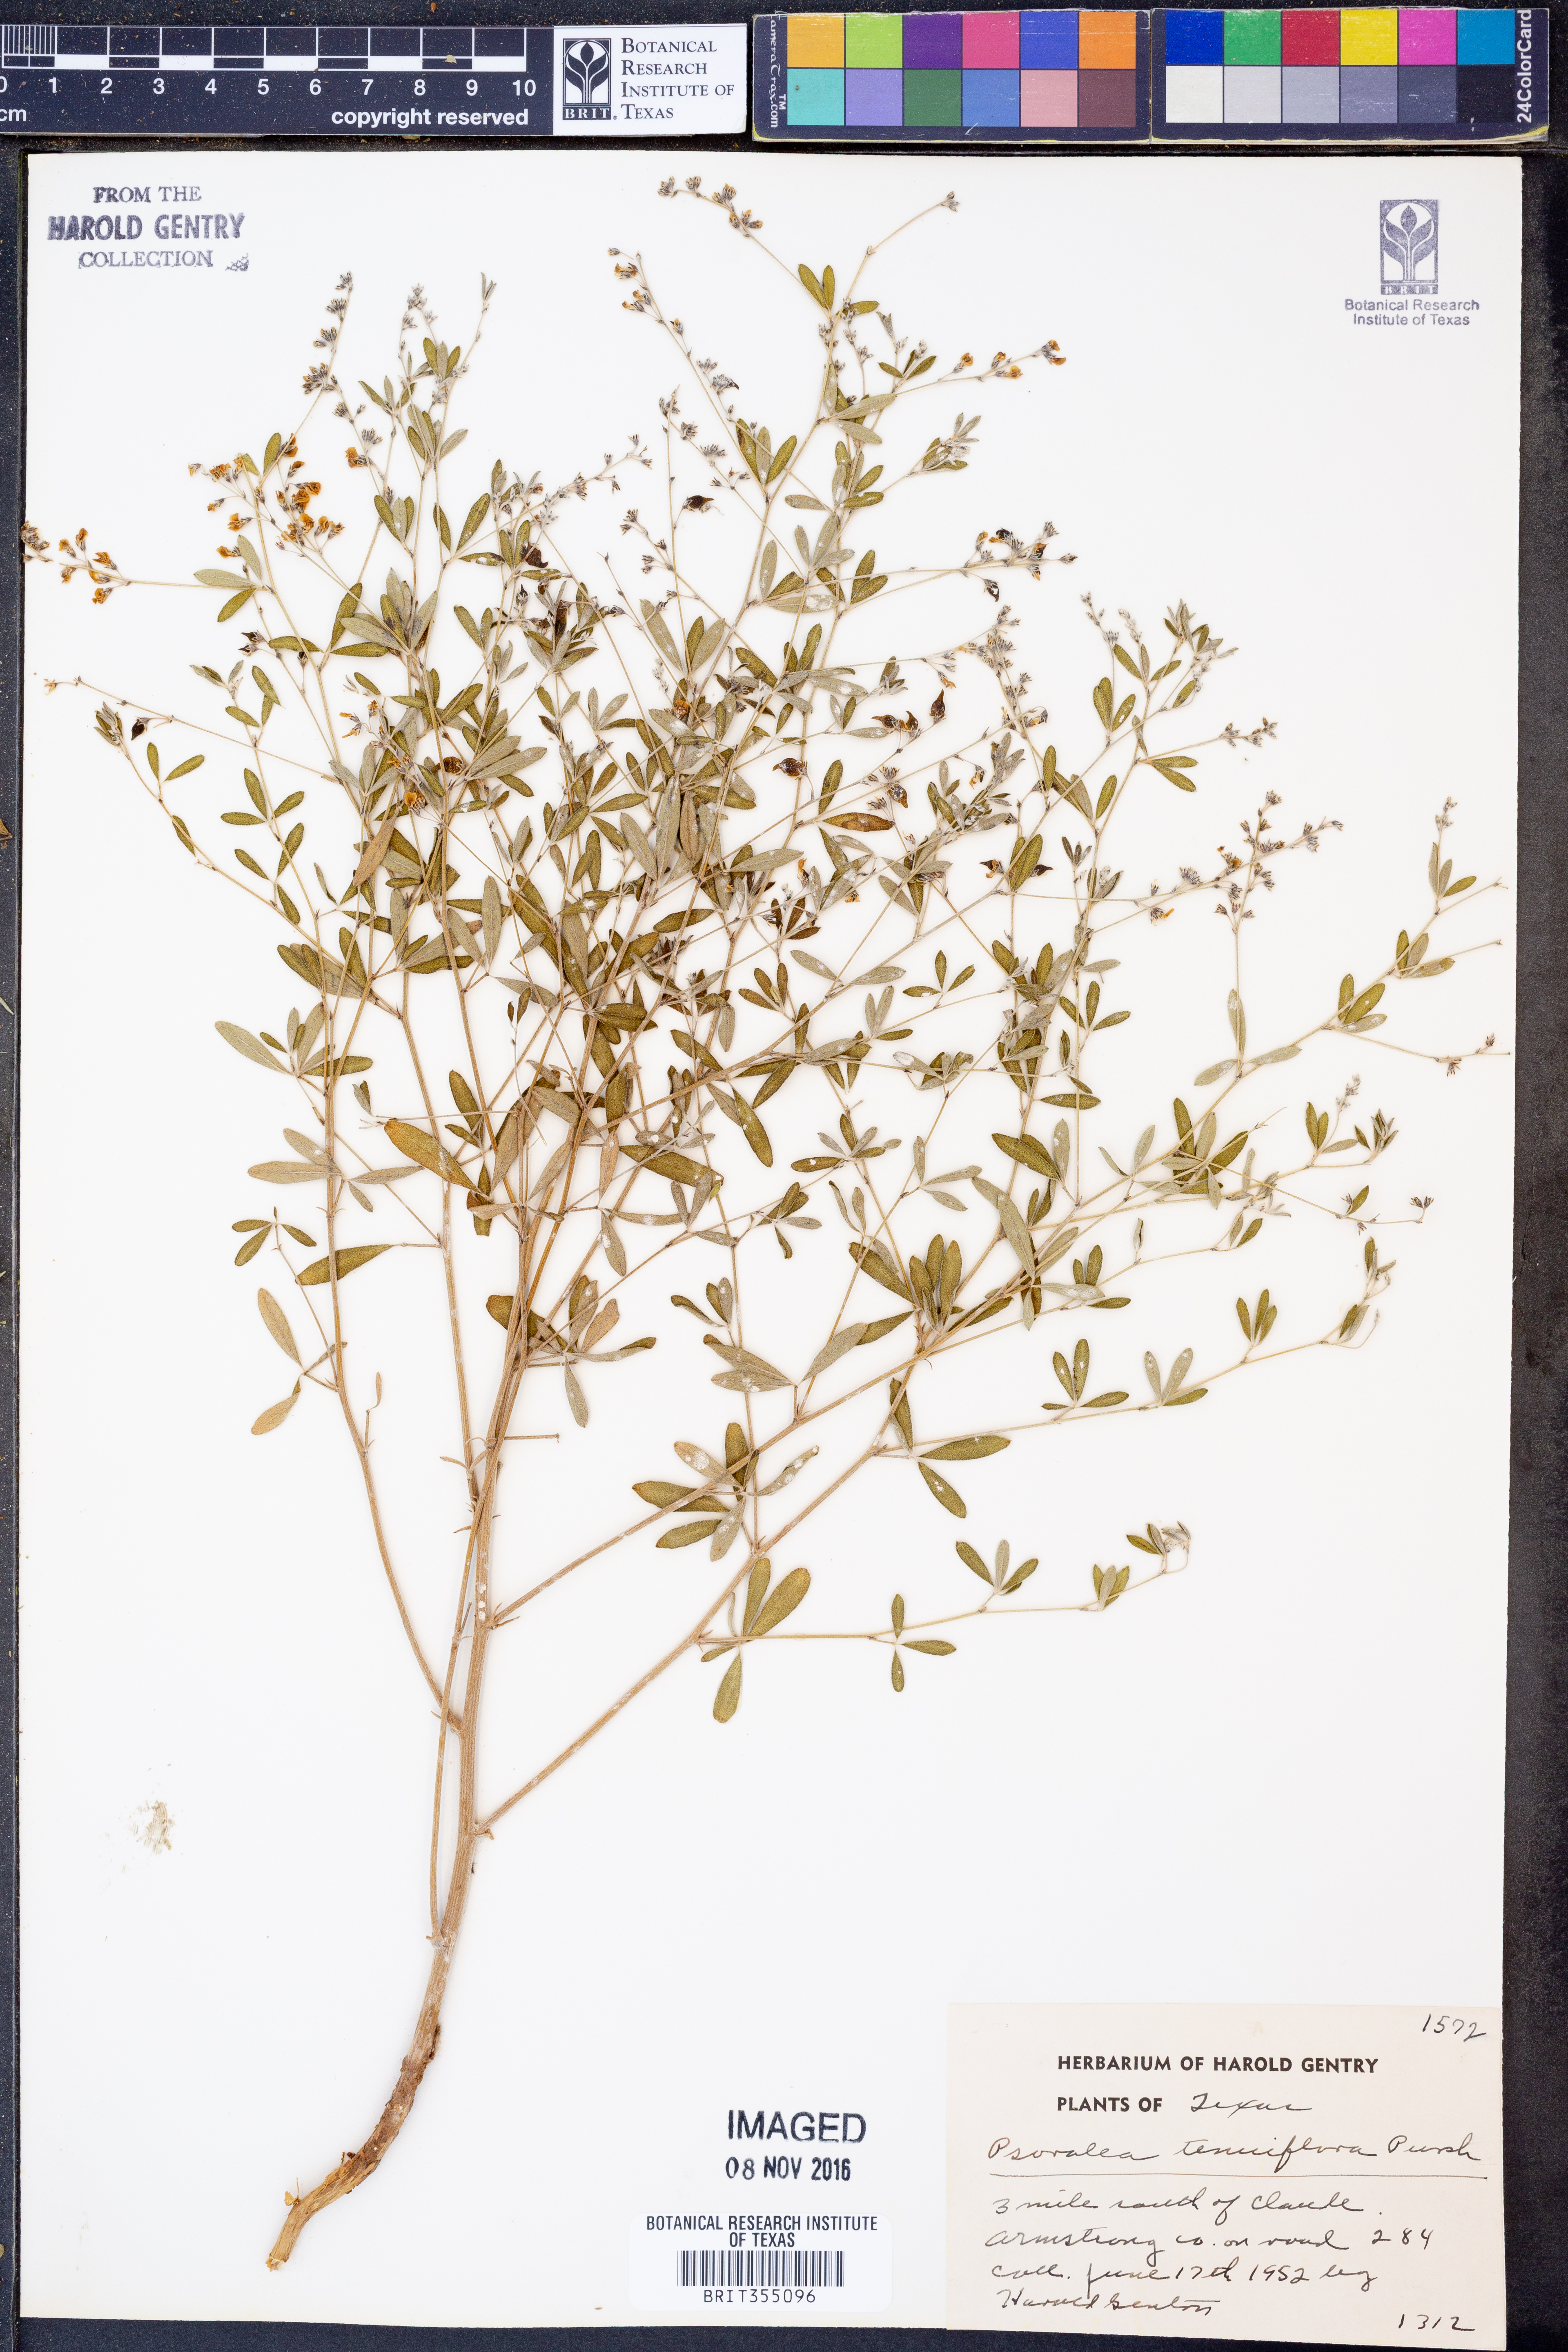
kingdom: Plantae
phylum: Tracheophyta
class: Magnoliopsida
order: Fabales
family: Fabaceae
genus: Pediomelum
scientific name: Pediomelum tenuiflorum
